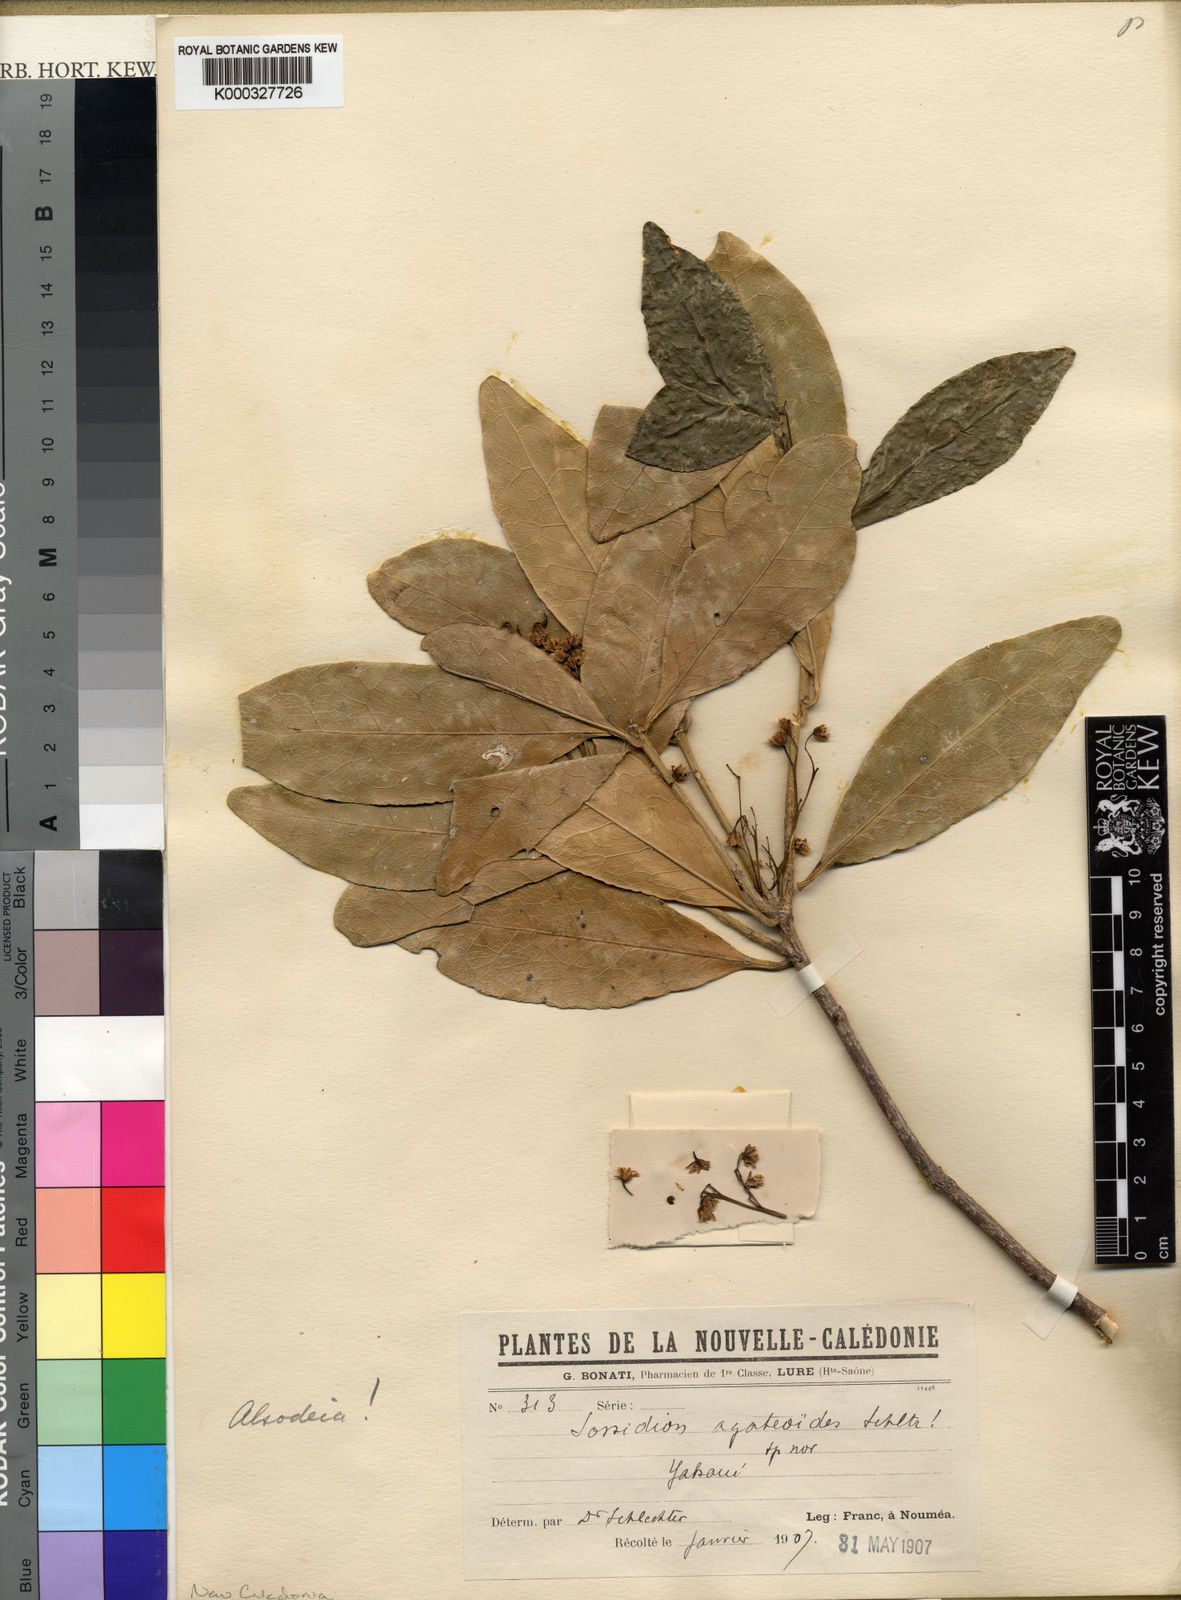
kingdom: Plantae
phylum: Tracheophyta
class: Magnoliopsida
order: Malpighiales
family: Violaceae
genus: Hybanthus
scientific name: Hybanthus
